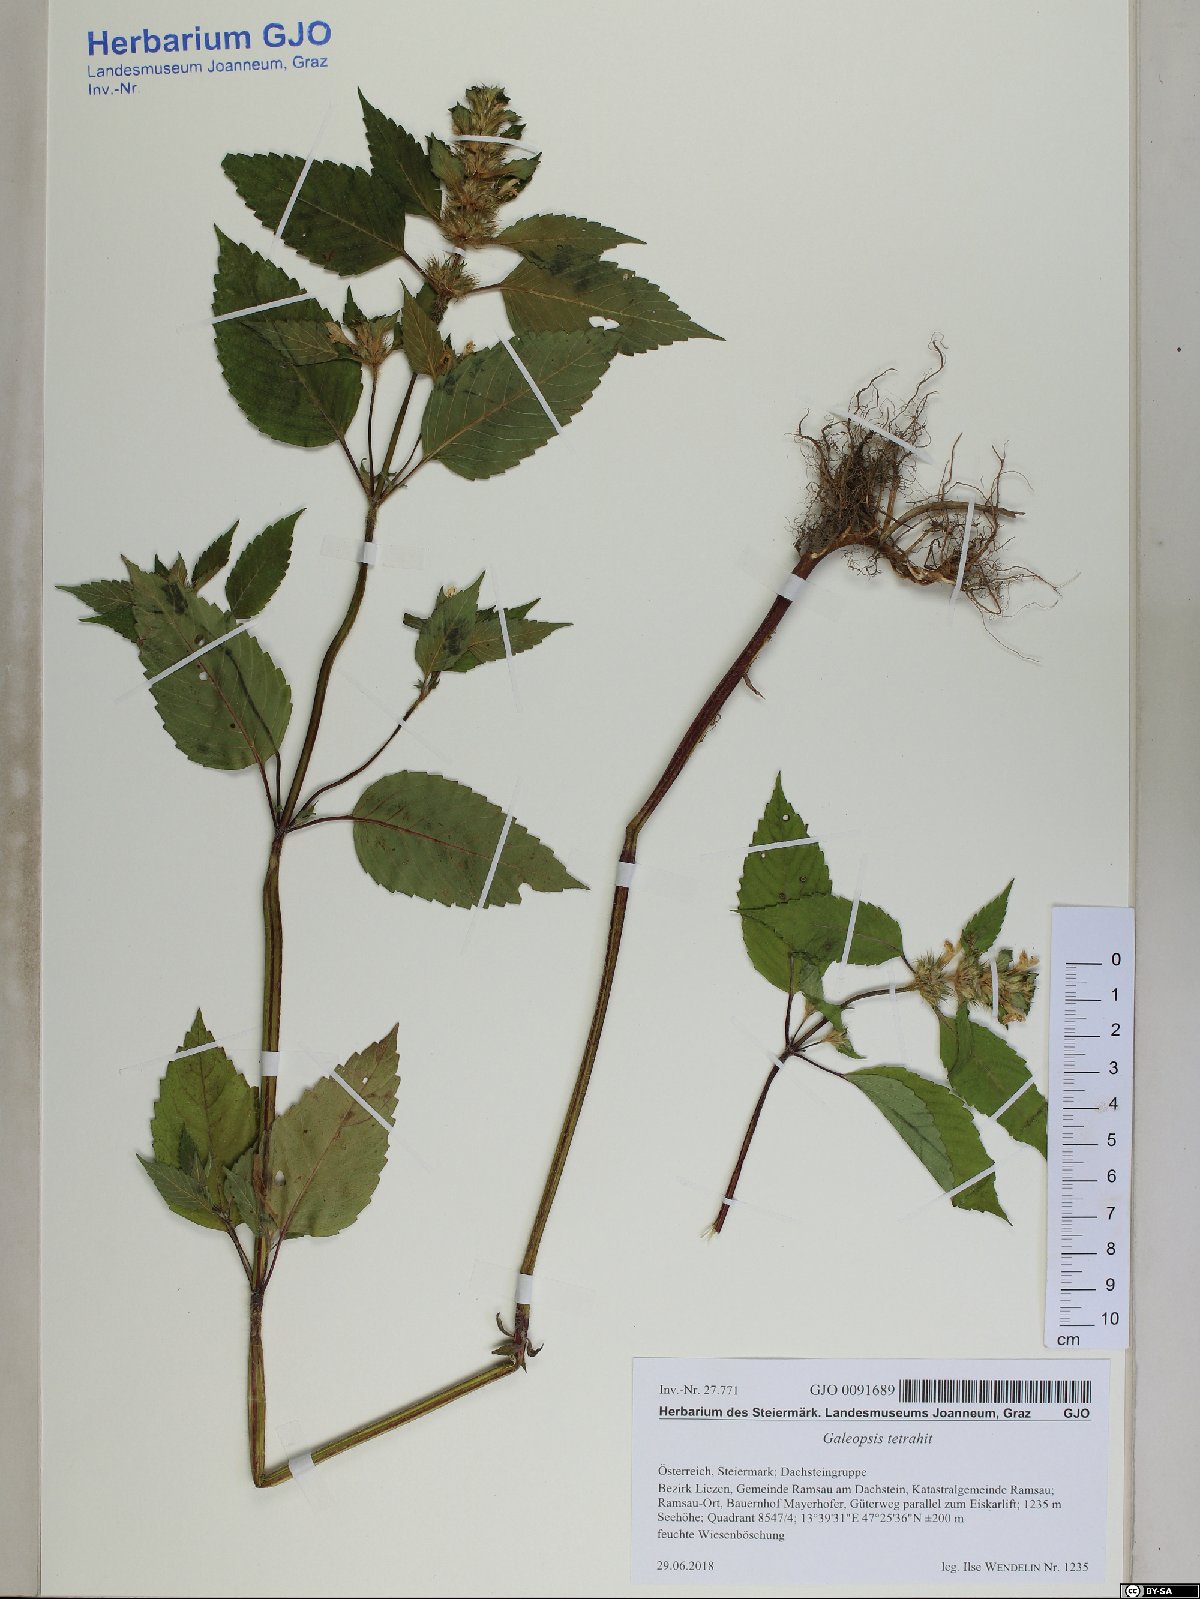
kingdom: Plantae
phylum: Tracheophyta
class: Magnoliopsida
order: Lamiales
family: Lamiaceae
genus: Galeopsis
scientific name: Galeopsis tetrahit
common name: Common hemp-nettle
